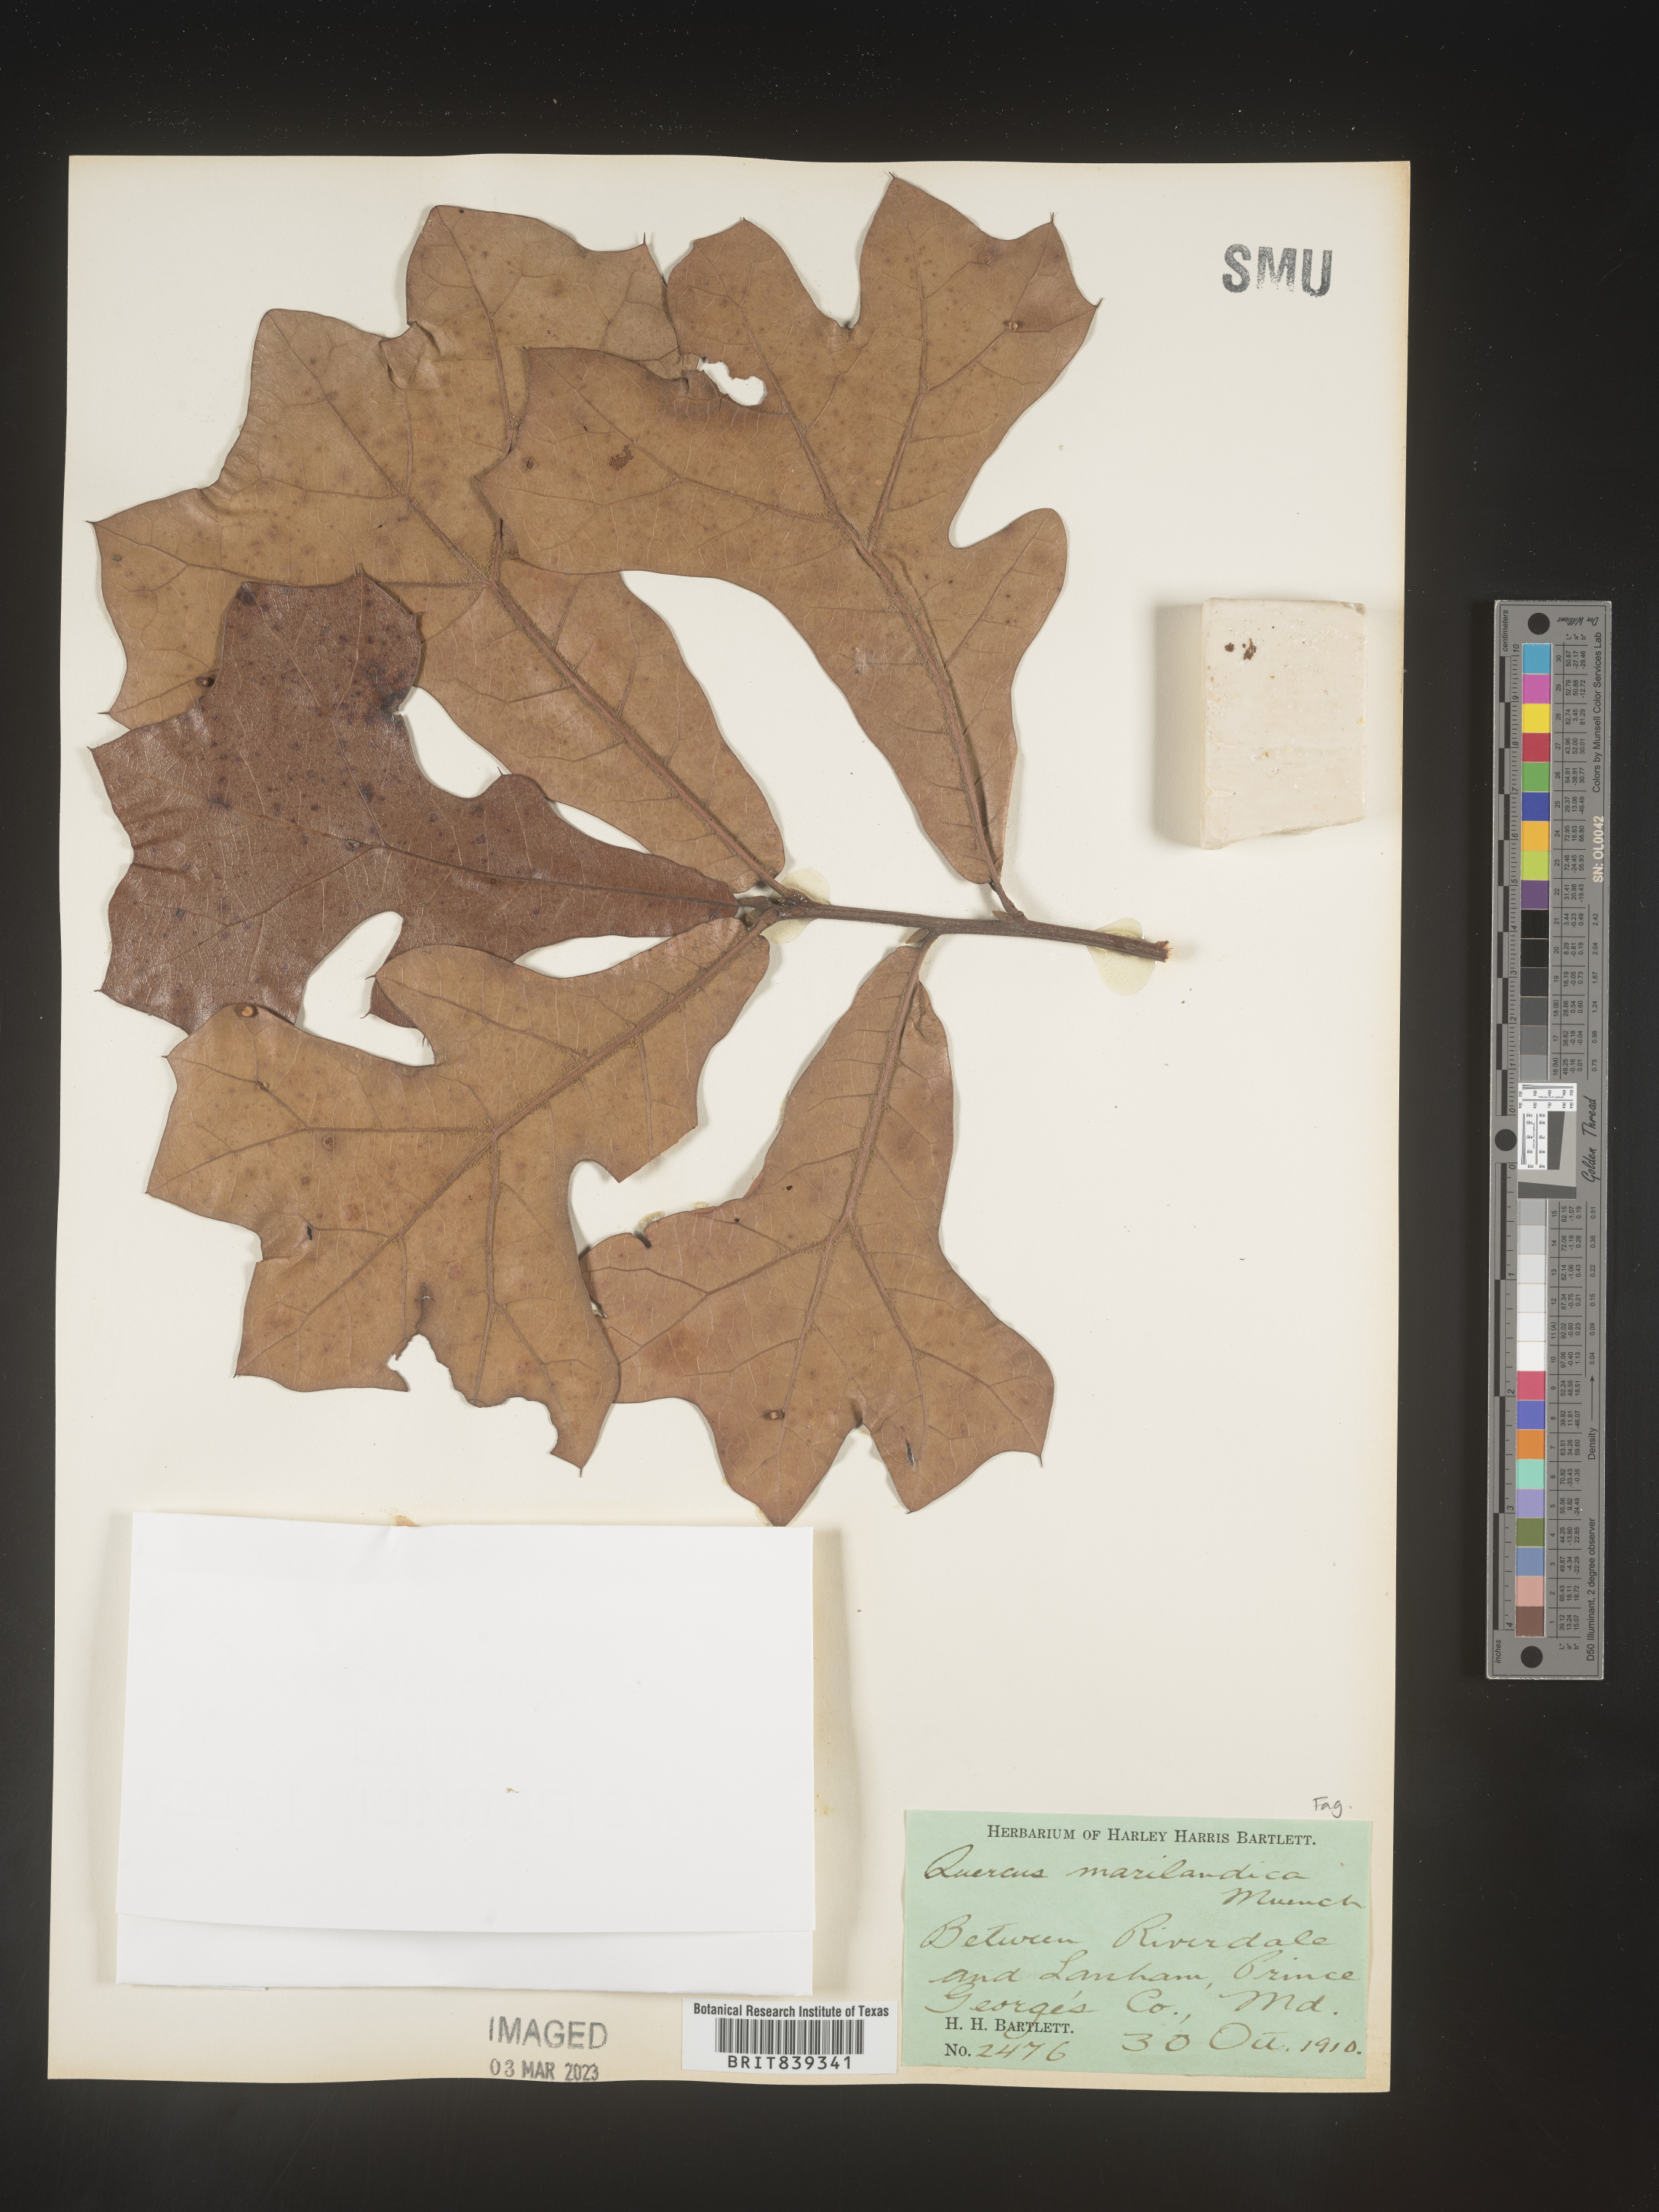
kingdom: Plantae
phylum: Tracheophyta
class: Magnoliopsida
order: Fagales
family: Fagaceae
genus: Quercus
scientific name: Quercus marilandica
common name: Blackjack oak
